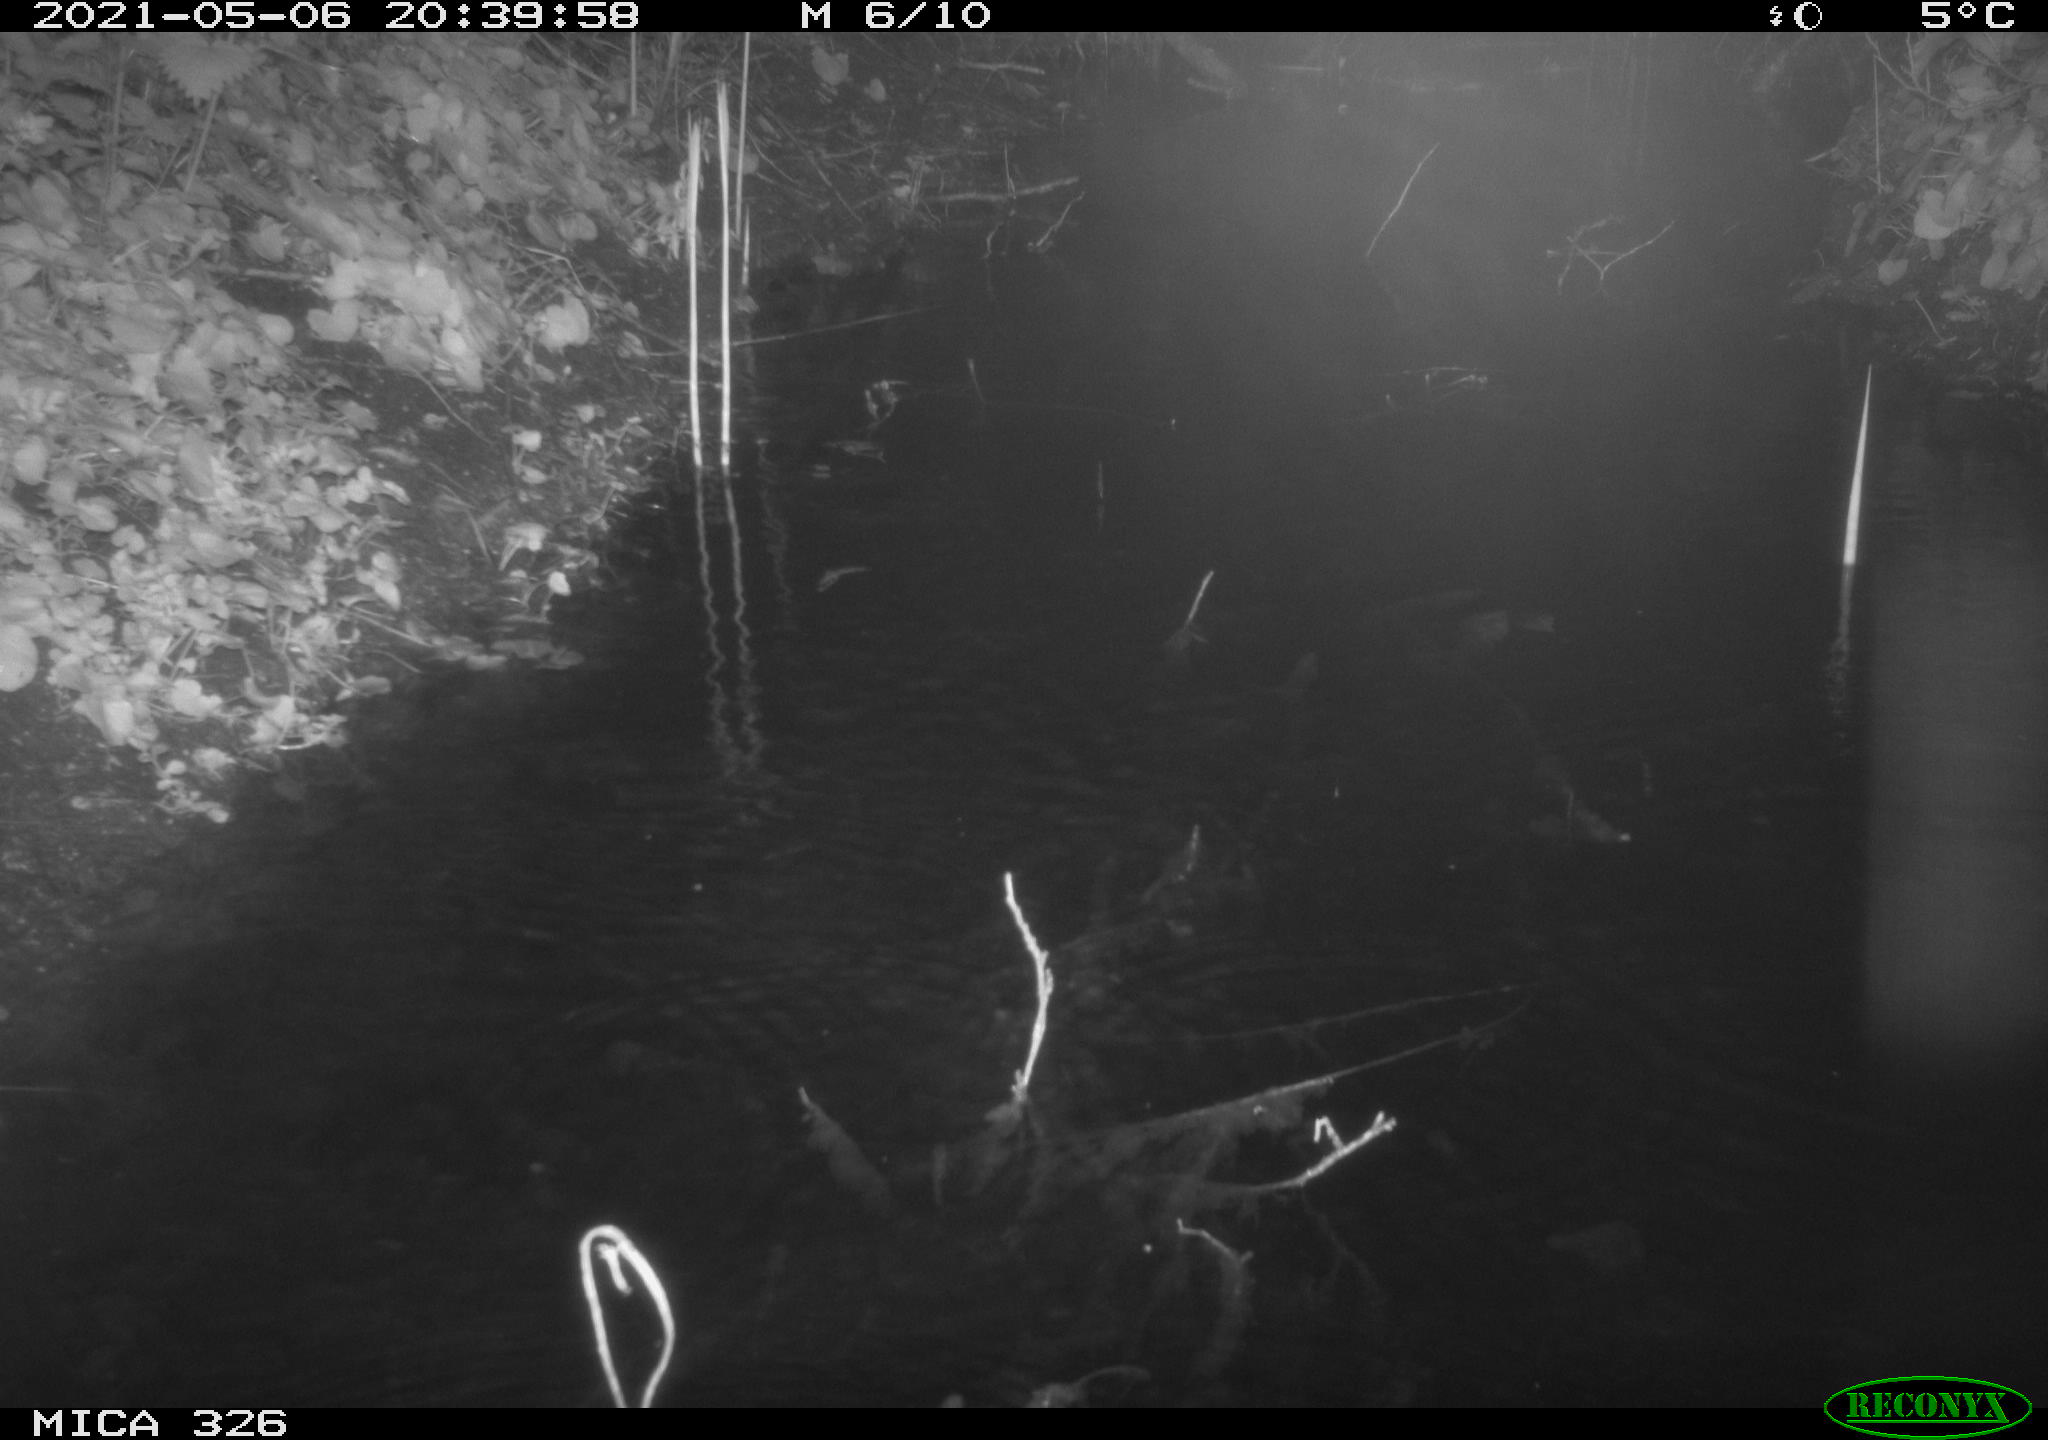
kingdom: Animalia
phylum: Chordata
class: Mammalia
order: Rodentia
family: Muridae
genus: Rattus
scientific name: Rattus norvegicus
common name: Brown rat
